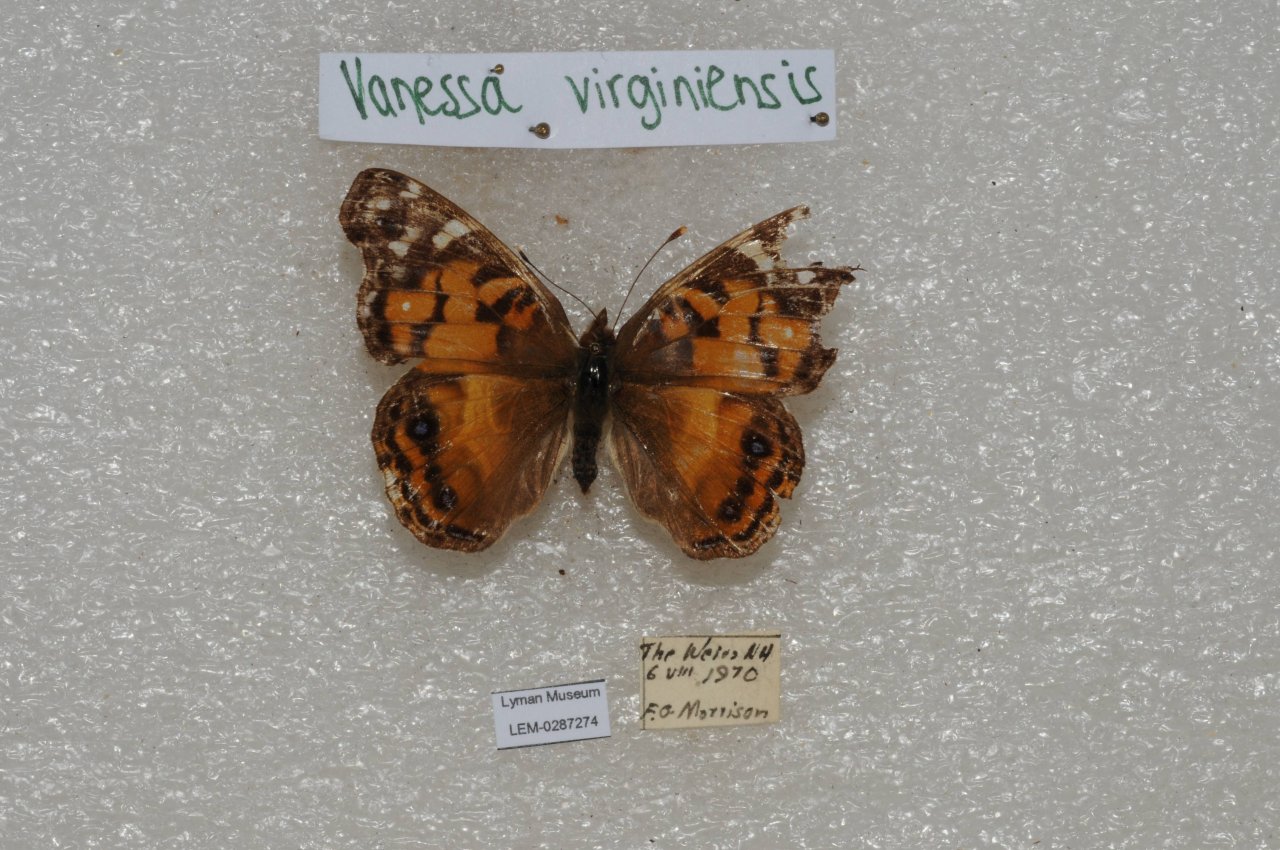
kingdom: Animalia
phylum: Arthropoda
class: Insecta
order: Lepidoptera
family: Nymphalidae
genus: Vanessa
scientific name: Vanessa virginiensis
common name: American Lady
